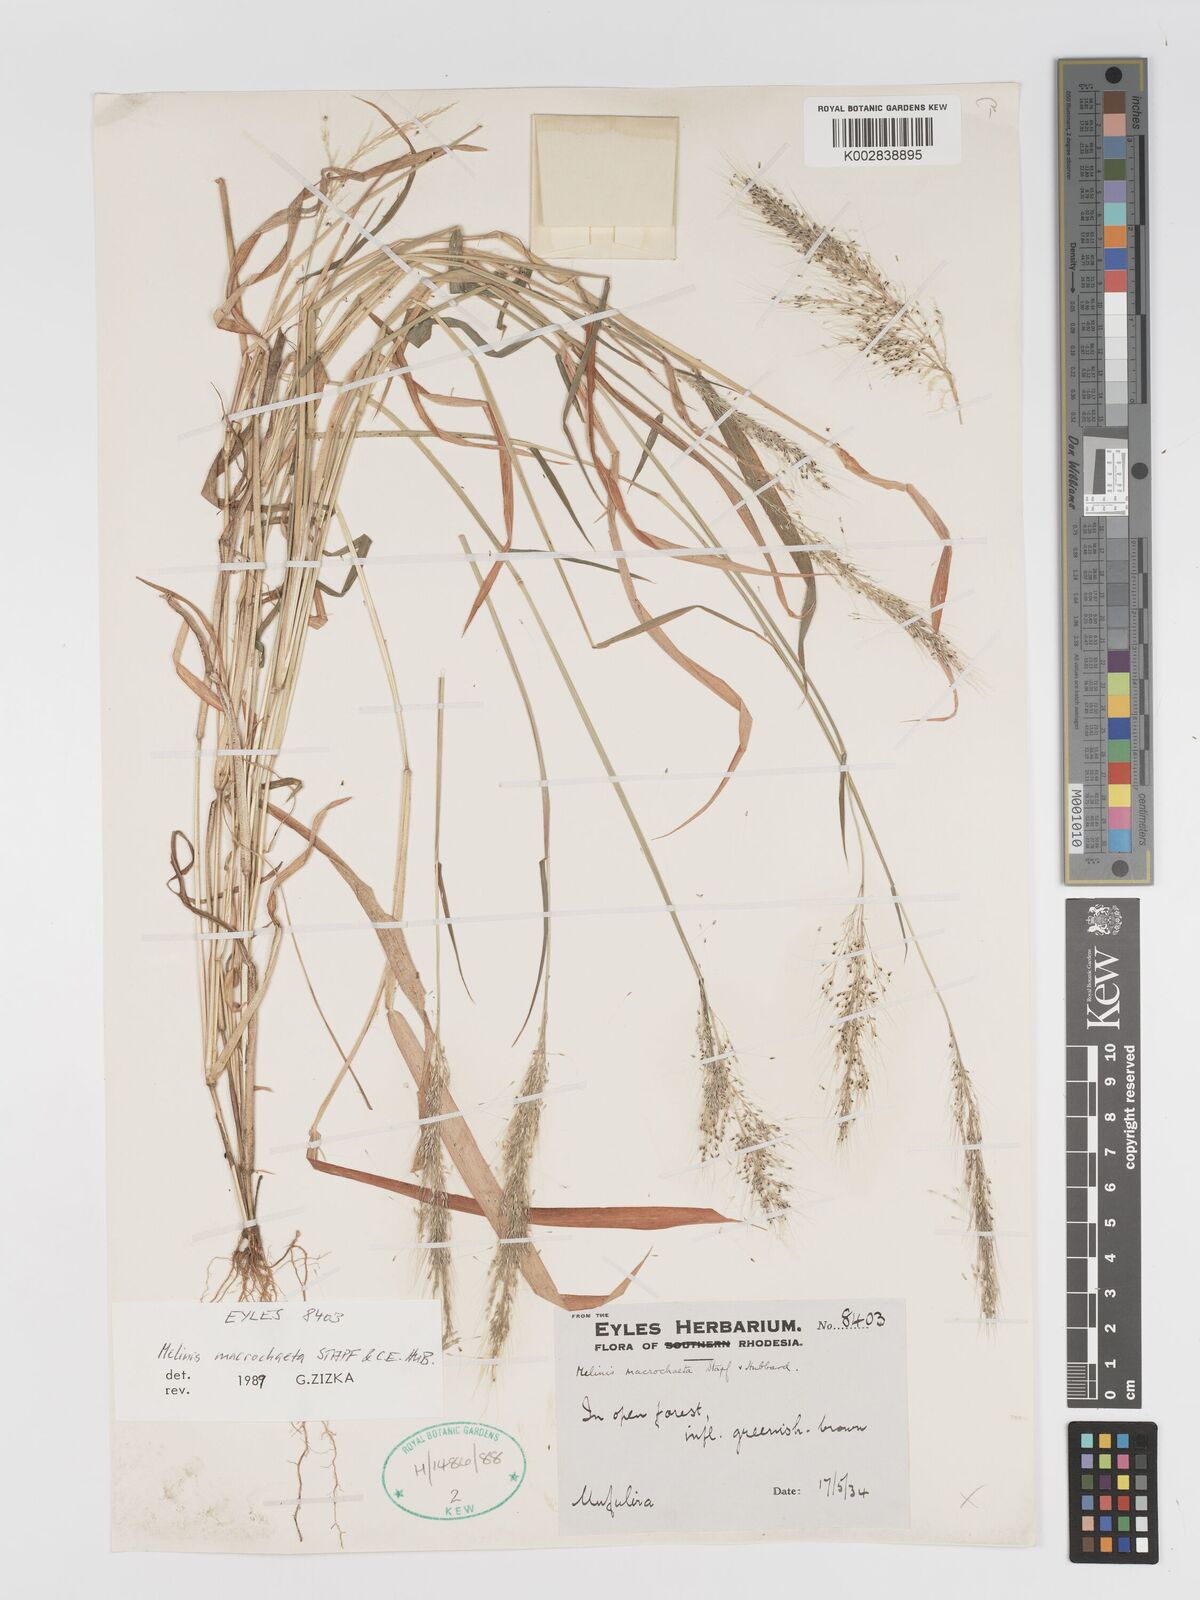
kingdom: Plantae
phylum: Tracheophyta
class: Liliopsida
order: Poales
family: Poaceae
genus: Melinis
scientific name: Melinis macrochaeta
